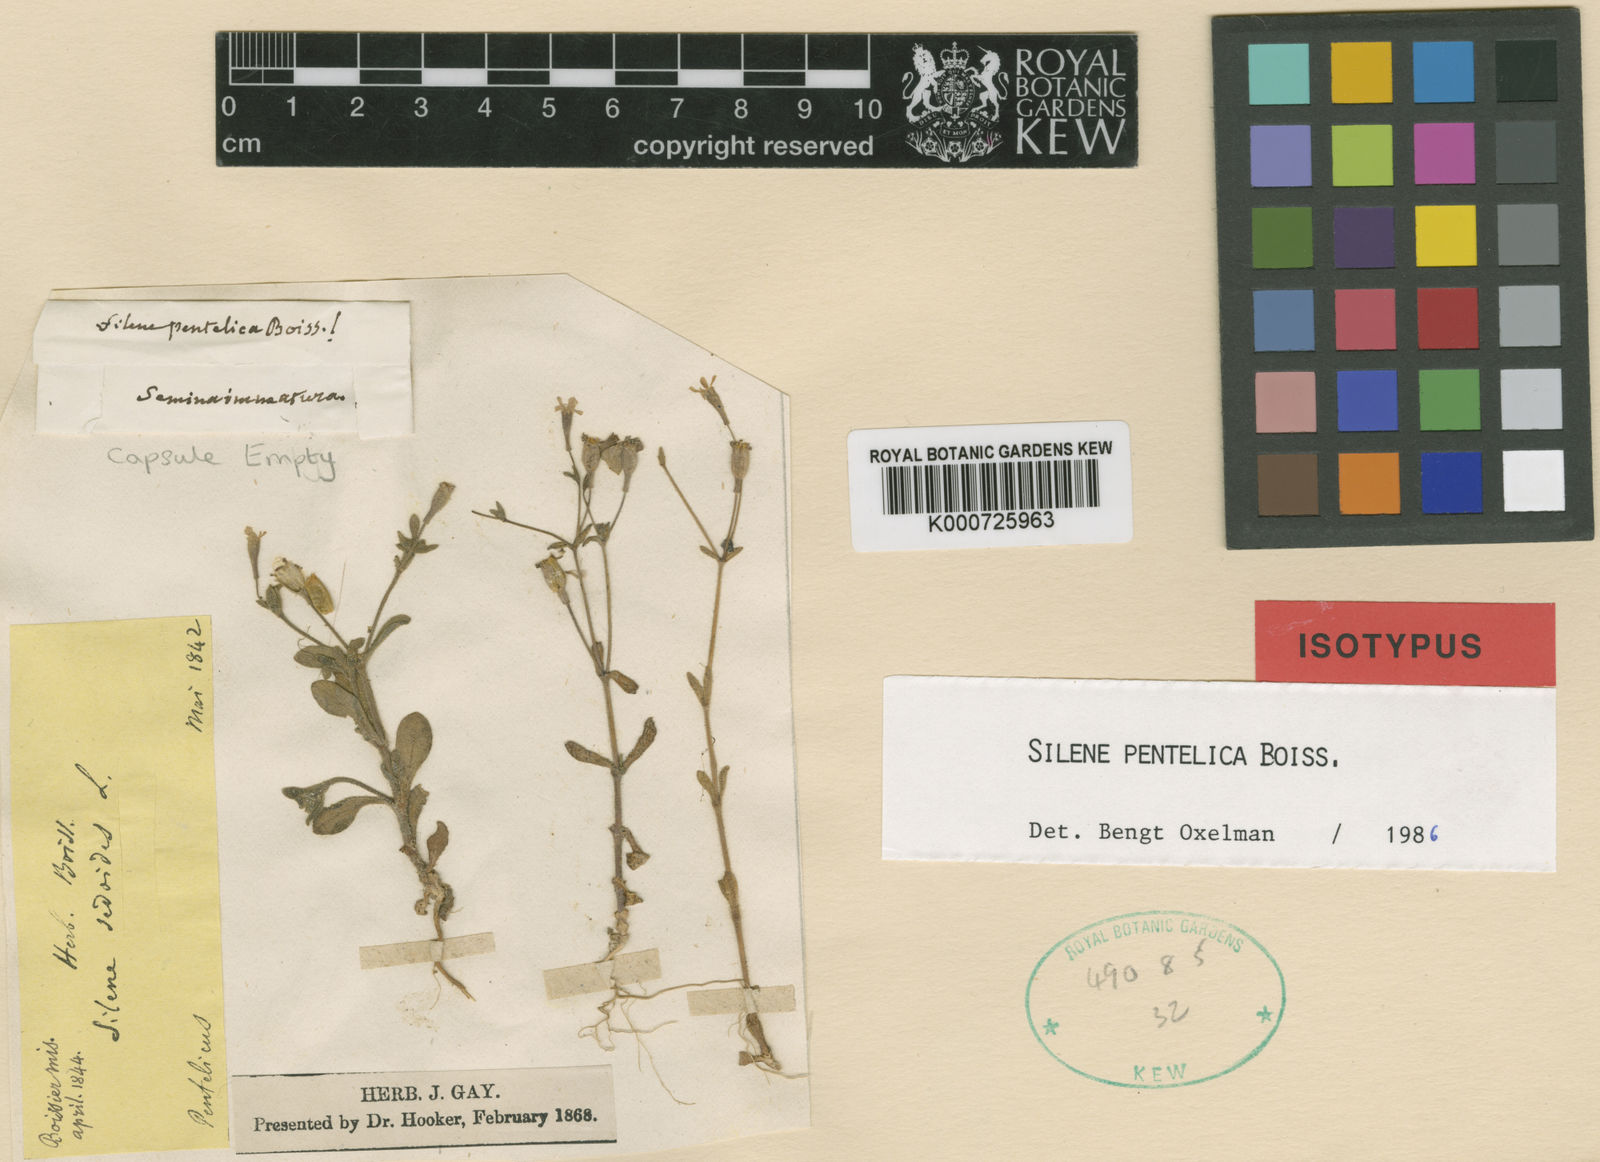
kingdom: Plantae
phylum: Tracheophyta
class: Magnoliopsida
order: Caryophyllales
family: Caryophyllaceae
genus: Silene
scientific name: Silene pentelica
